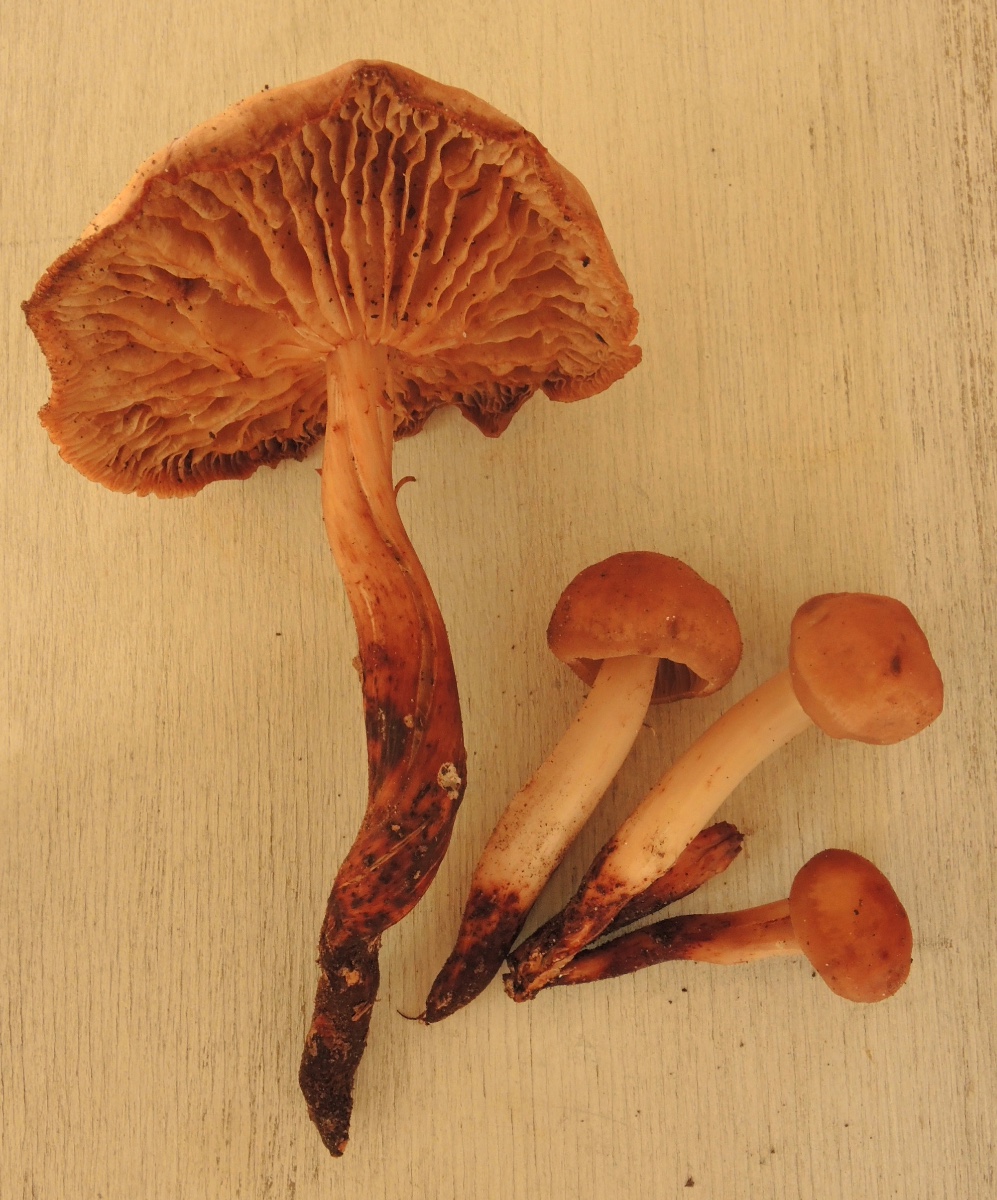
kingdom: Fungi
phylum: Basidiomycota
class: Agaricomycetes
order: Agaricales
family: Omphalotaceae
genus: Gymnopus
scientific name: Gymnopus fusipes
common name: tenstokket fladhat
